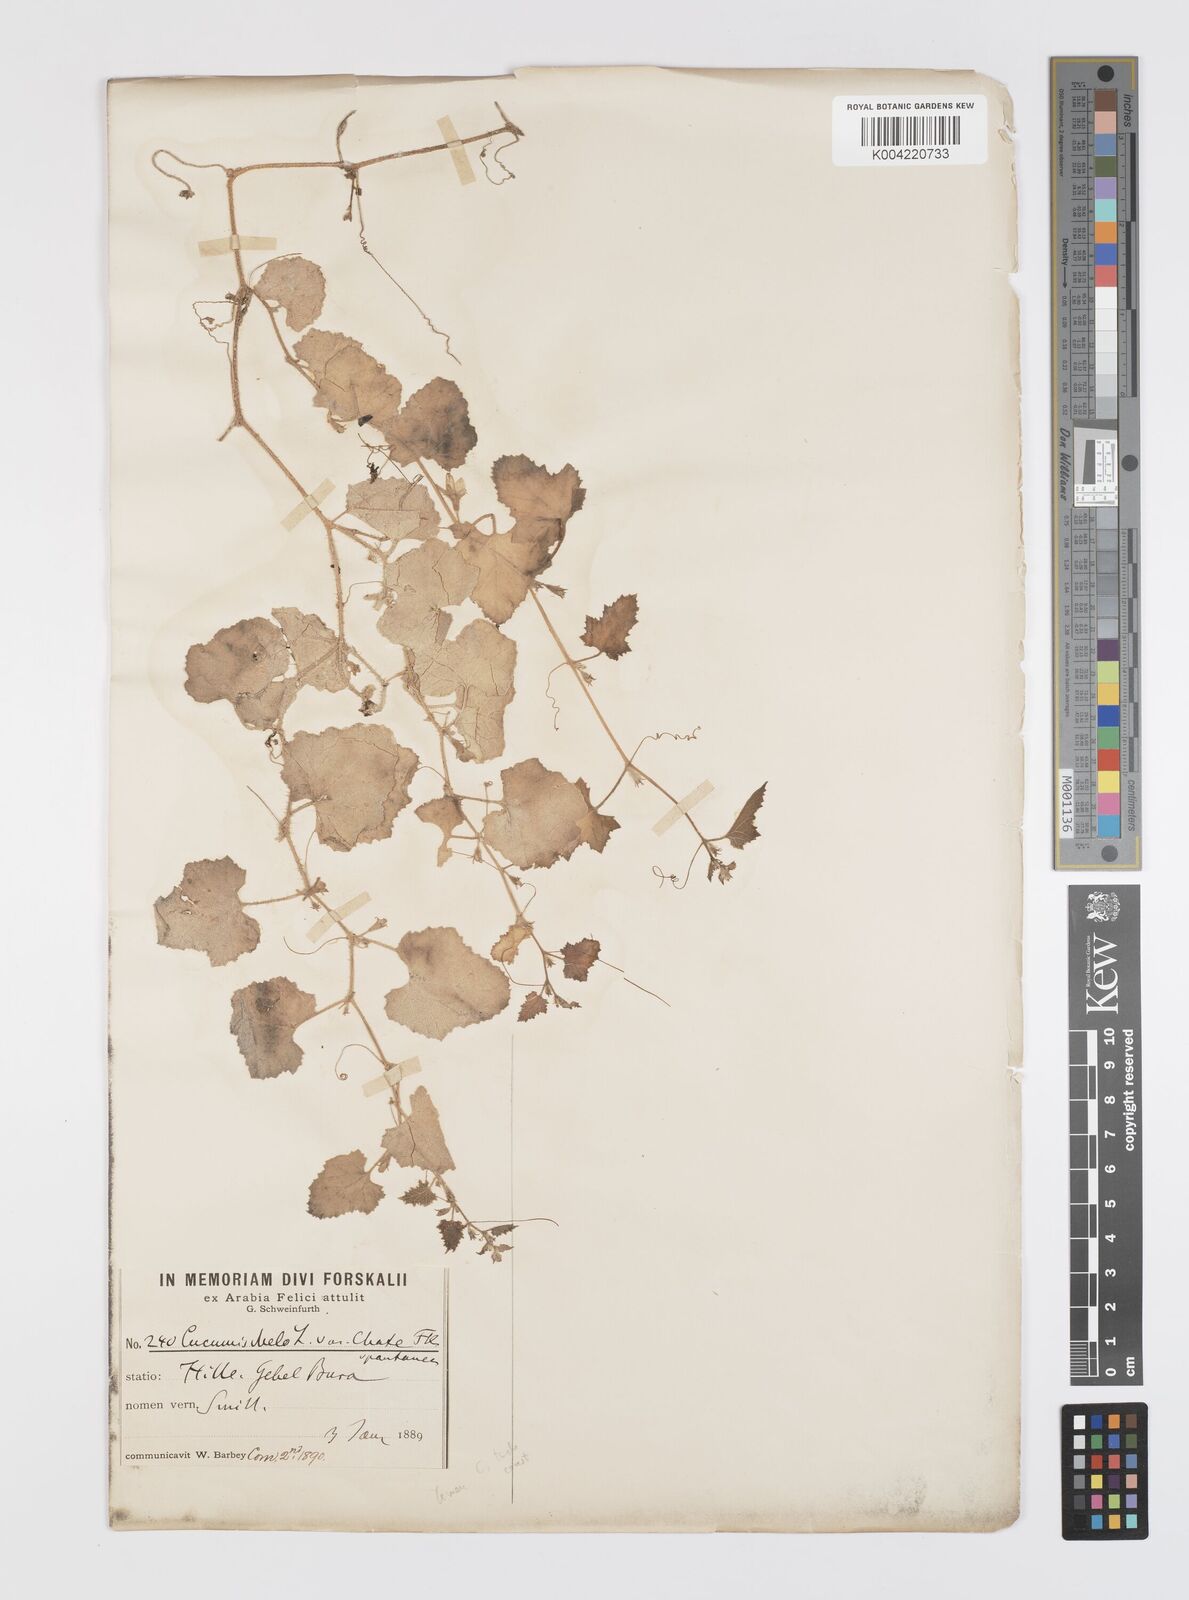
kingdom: Plantae
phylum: Tracheophyta
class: Magnoliopsida
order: Cucurbitales
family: Cucurbitaceae
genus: Cucumis
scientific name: Cucumis melo
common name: Melon
